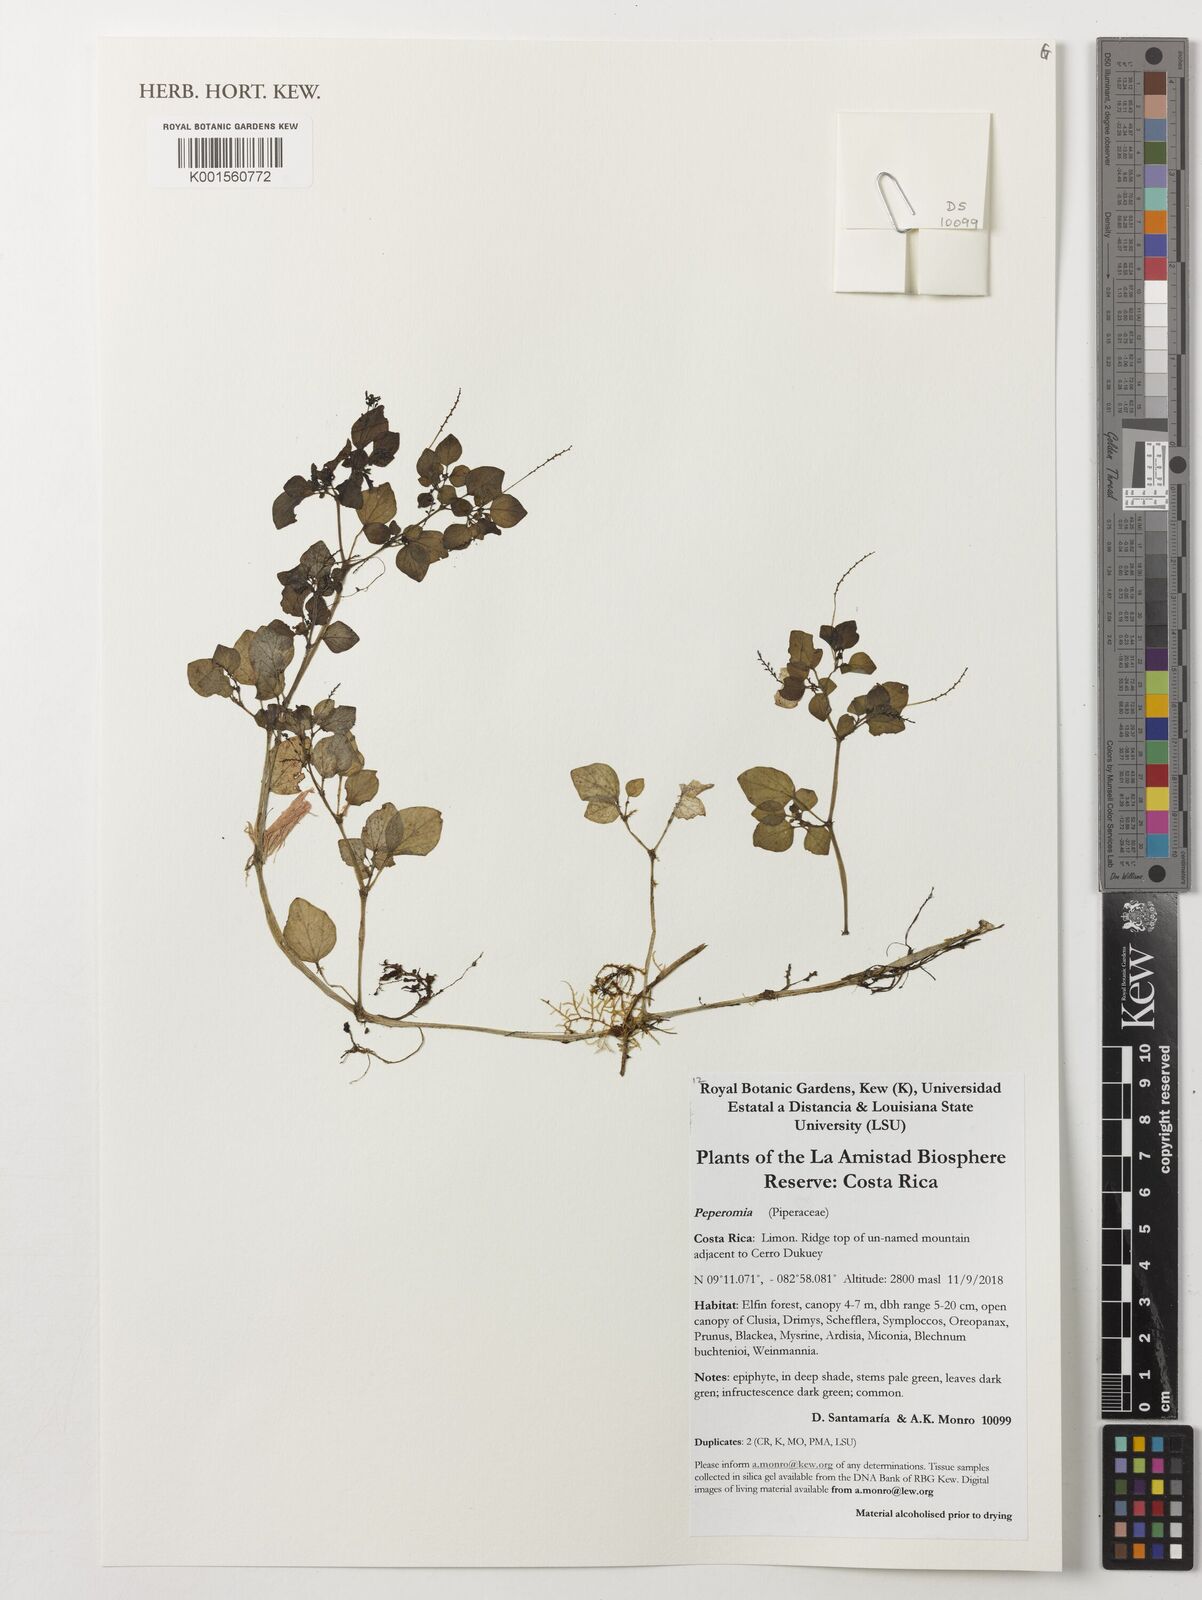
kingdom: Plantae
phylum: Tracheophyta
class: Magnoliopsida
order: Piperales
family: Piperaceae
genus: Peperomia
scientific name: Peperomia
